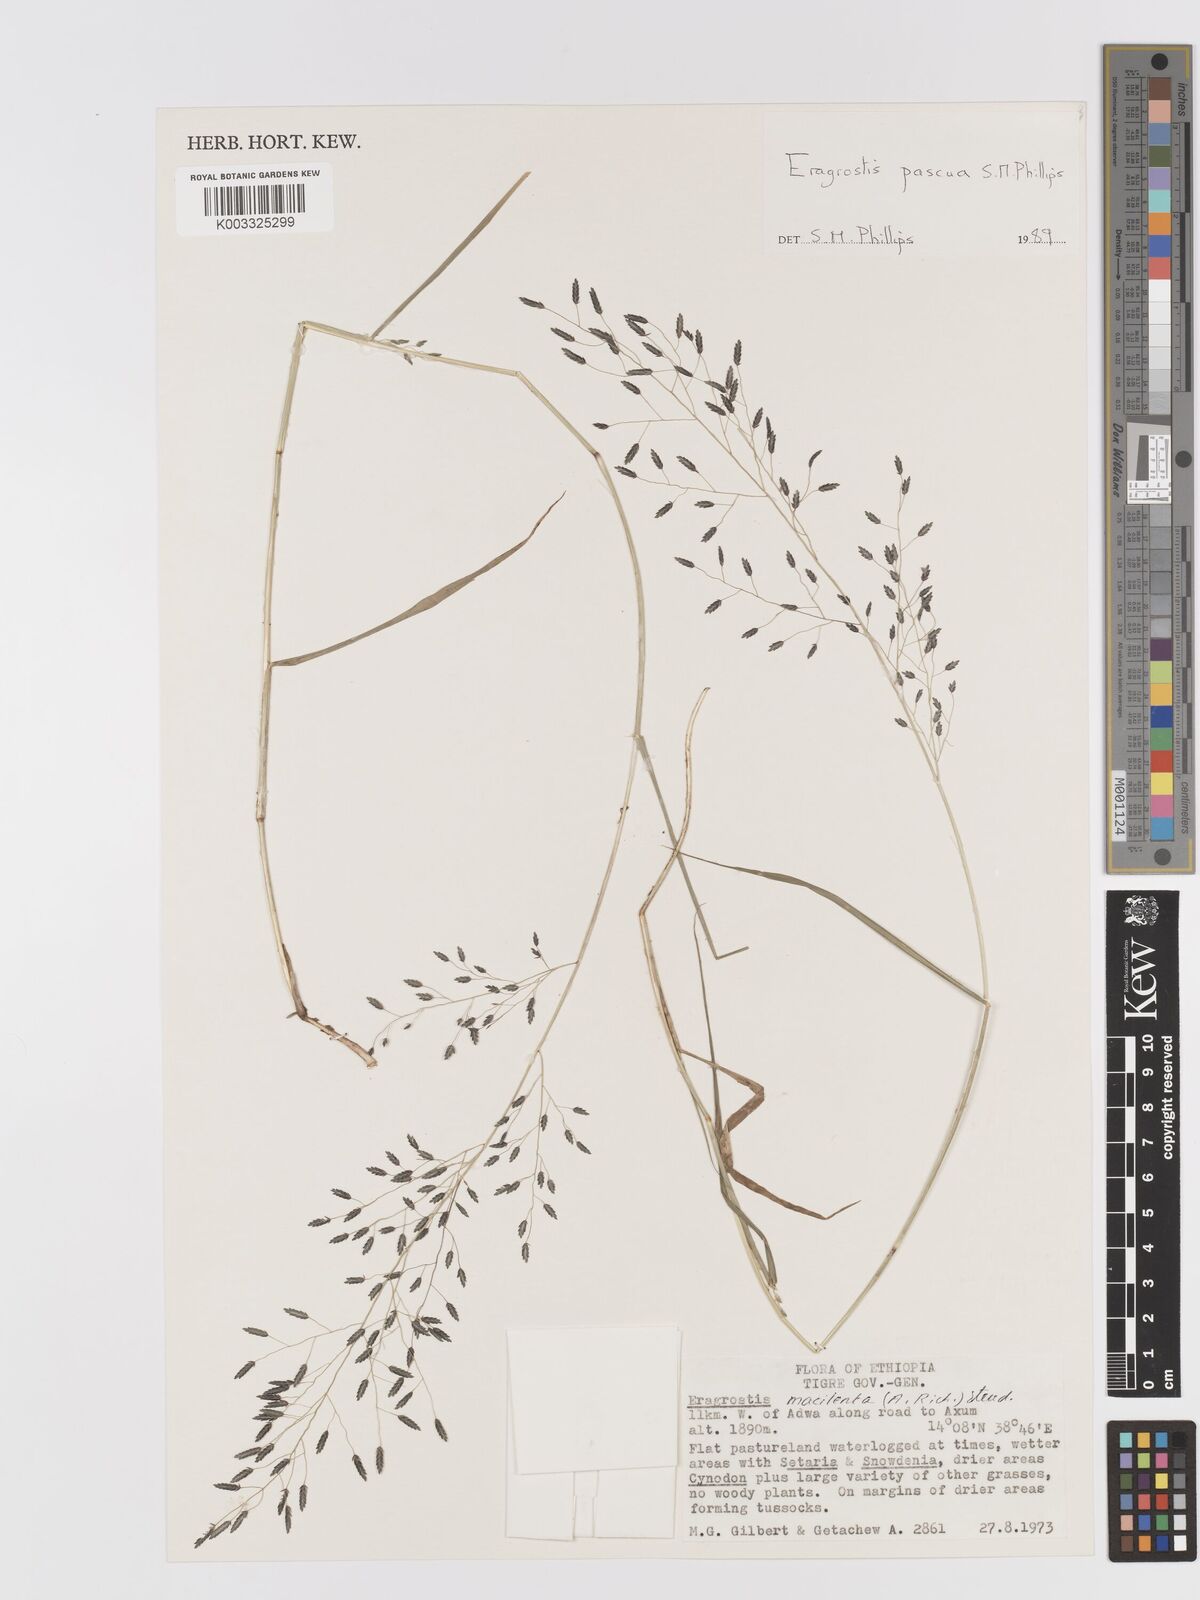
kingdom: Plantae
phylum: Tracheophyta
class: Liliopsida
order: Poales
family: Poaceae
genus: Eragrostis
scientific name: Eragrostis pascua
